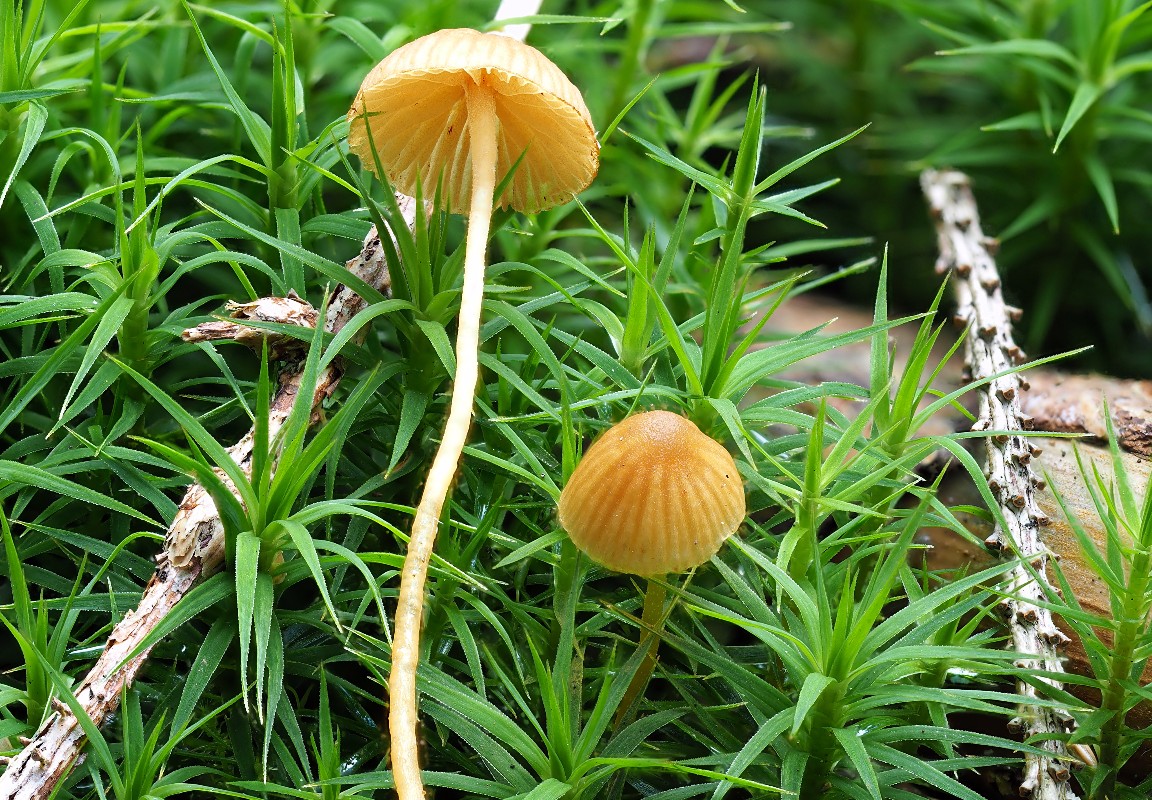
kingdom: Fungi
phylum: Basidiomycota
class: Agaricomycetes
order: Agaricales
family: Hymenogastraceae
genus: Galerina
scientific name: Galerina
